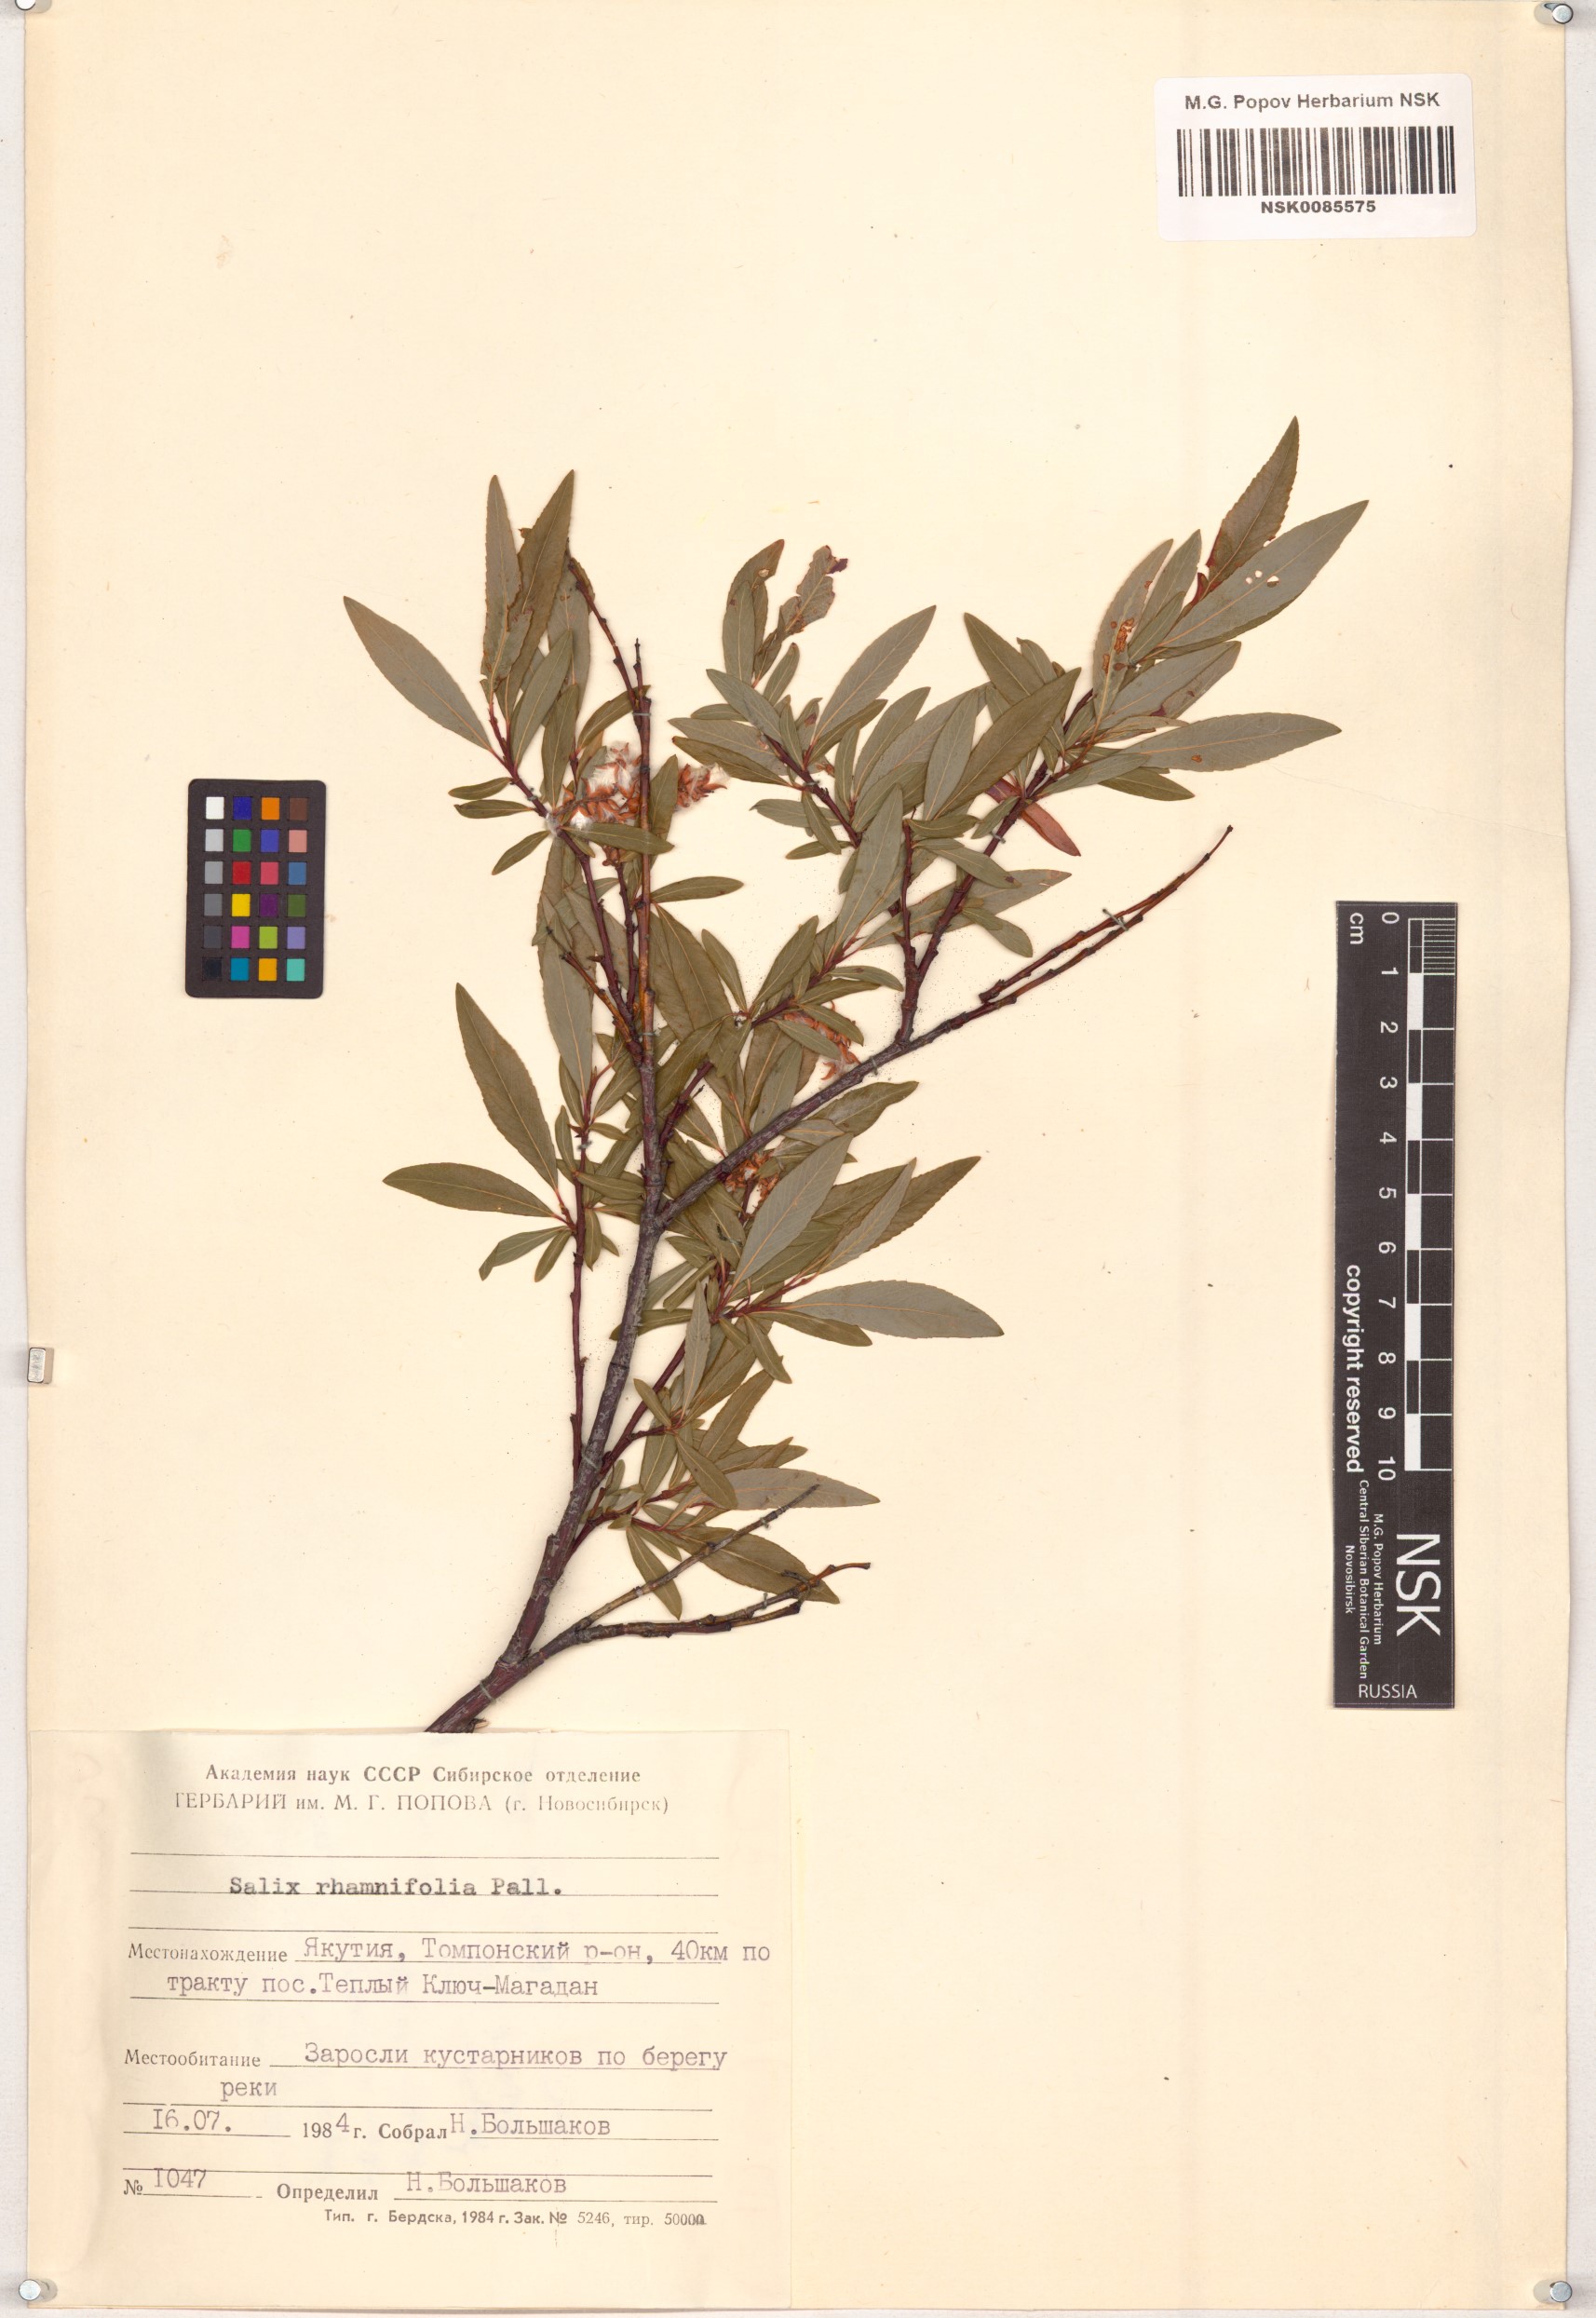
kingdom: Plantae
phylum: Tracheophyta
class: Magnoliopsida
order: Malpighiales
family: Salicaceae
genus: Salix
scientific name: Salix rhamnifolia
